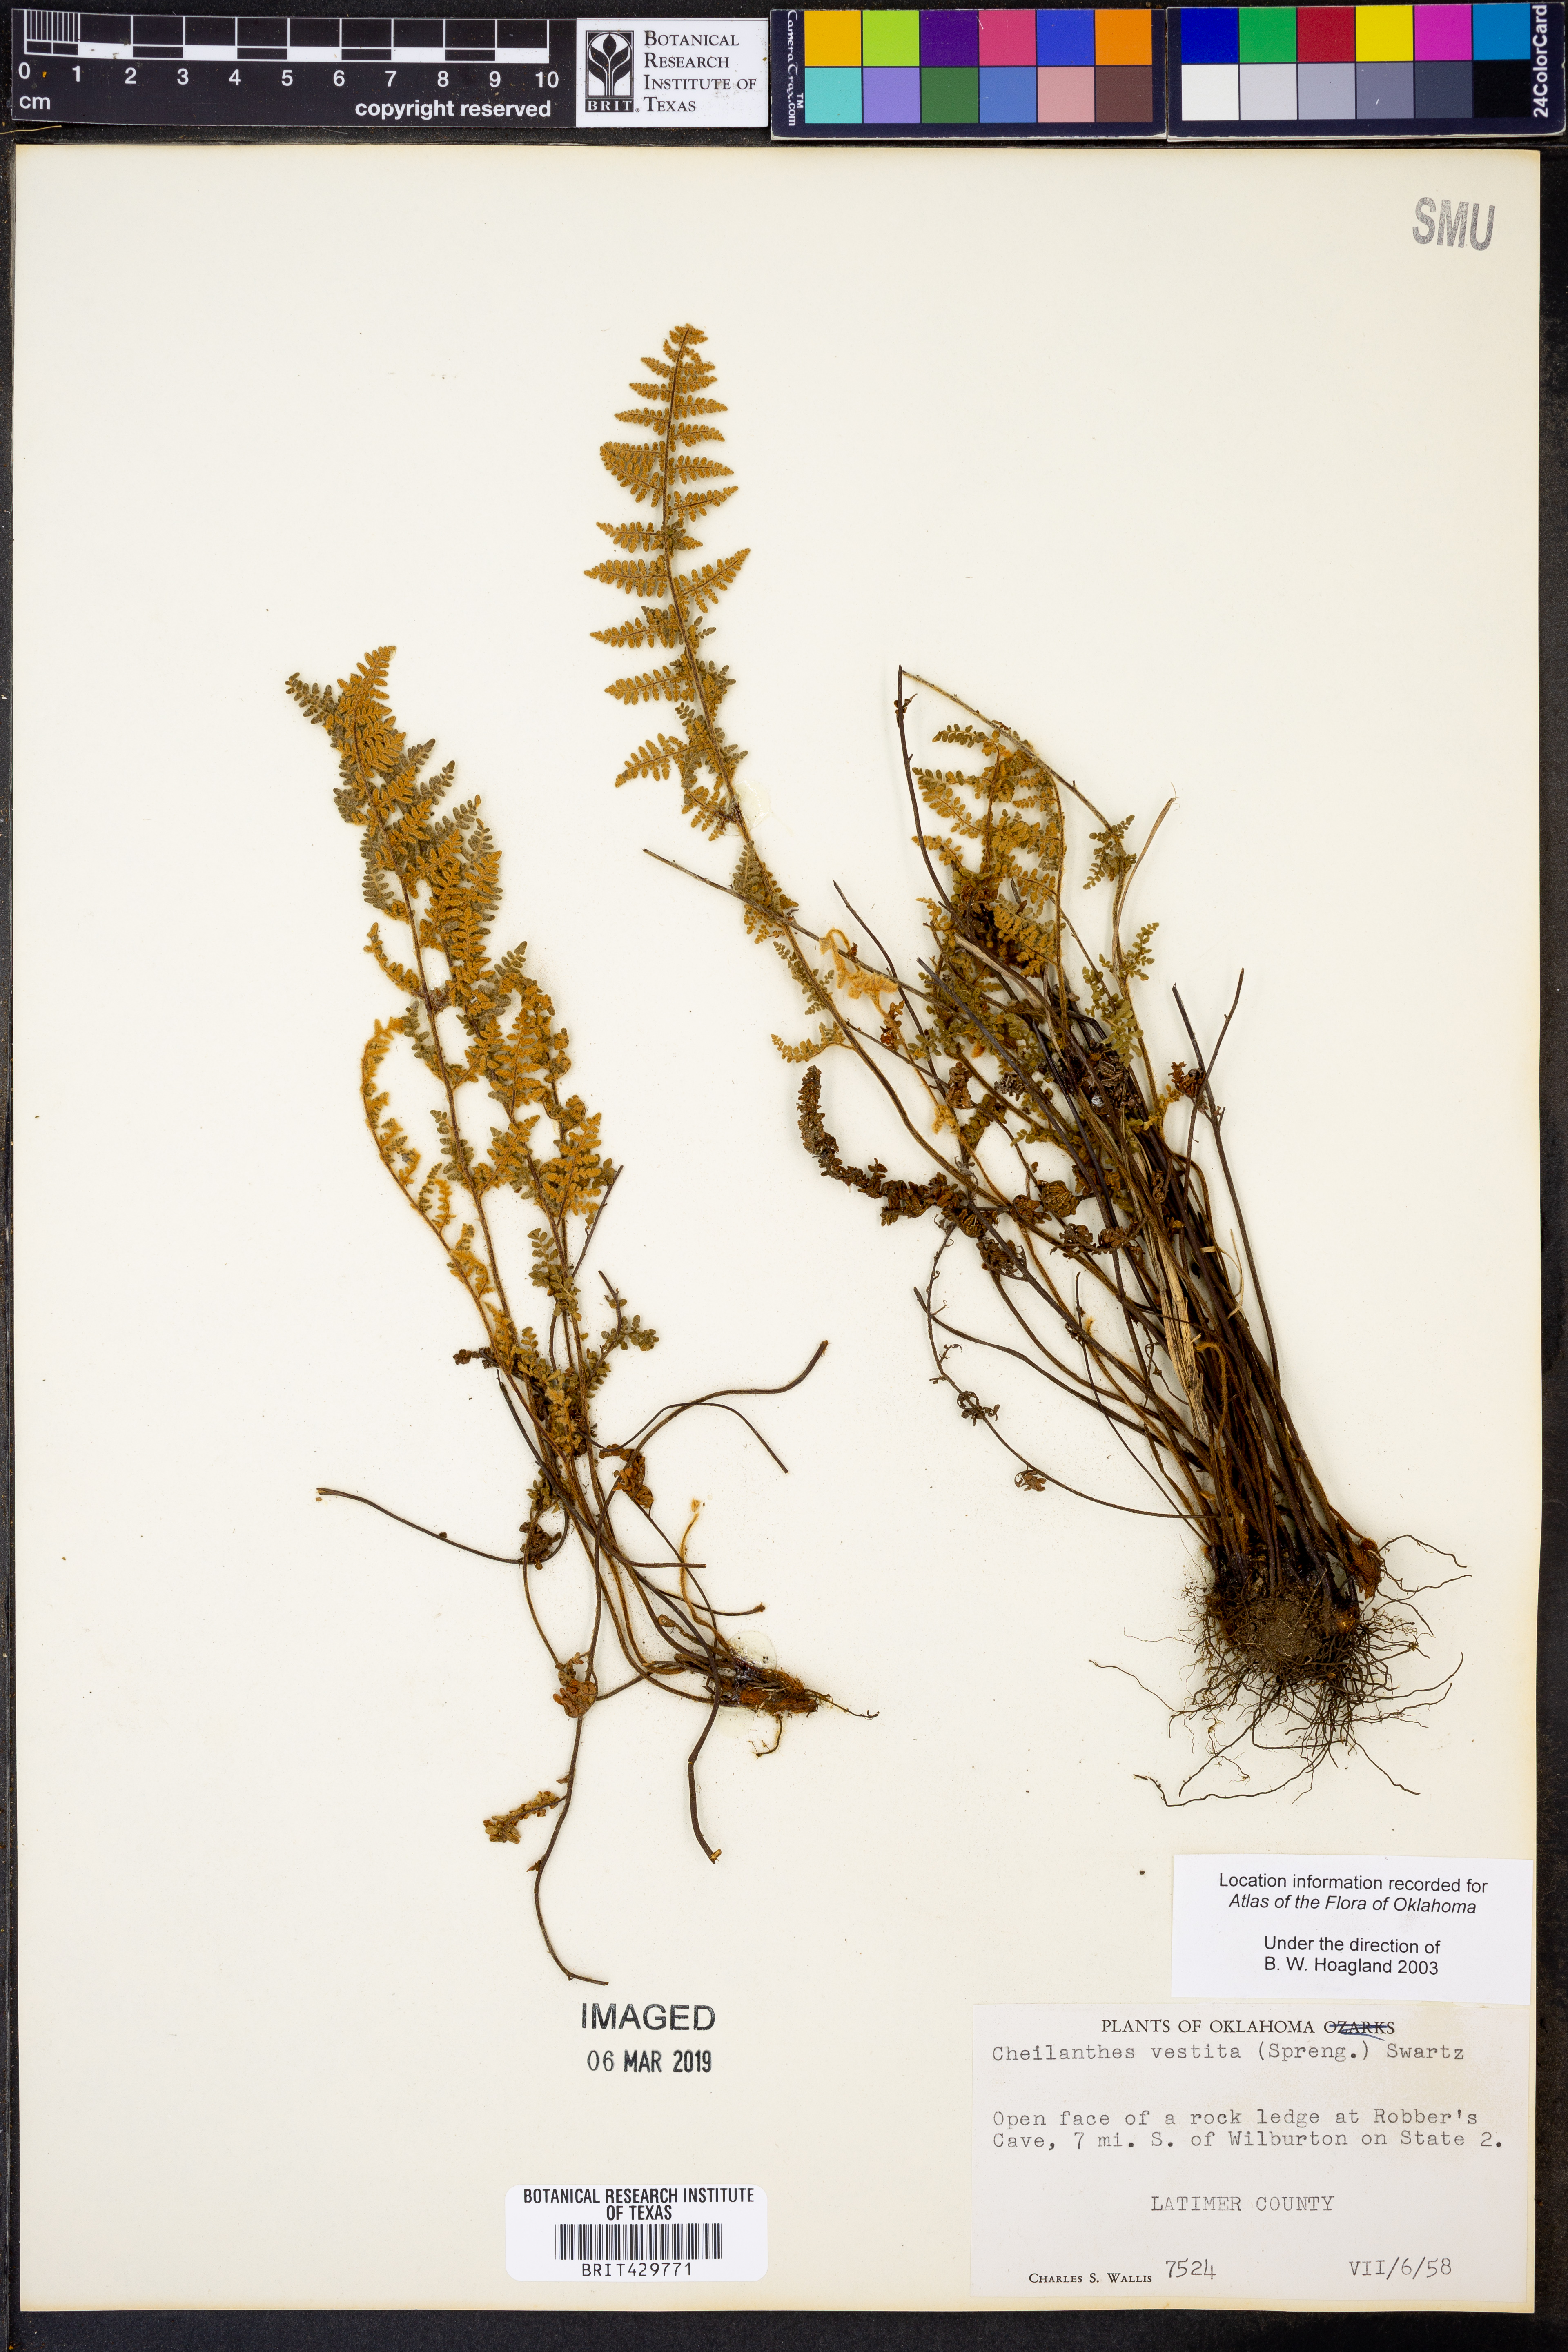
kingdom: Plantae
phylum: Tracheophyta
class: Polypodiopsida
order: Polypodiales
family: Pteridaceae
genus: Myriopteris
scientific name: Myriopteris lanosa
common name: Hairy lip fern
